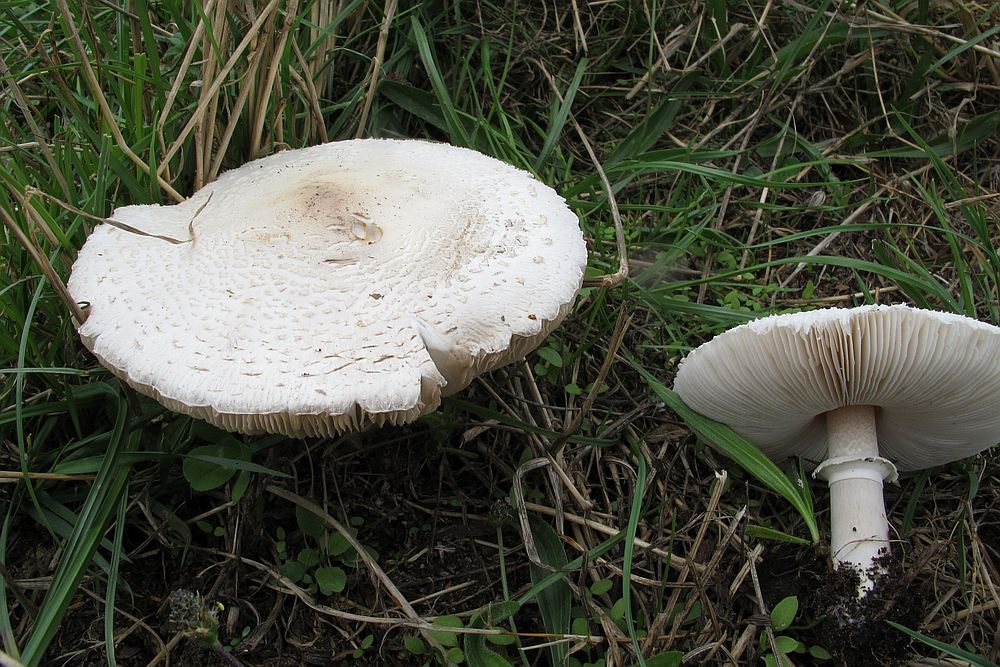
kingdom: Fungi
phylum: Basidiomycota
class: Agaricomycetes
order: Agaricales
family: Agaricaceae
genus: Macrolepiota
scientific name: Macrolepiota excoriata
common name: mark-kæmpeparasolhat
